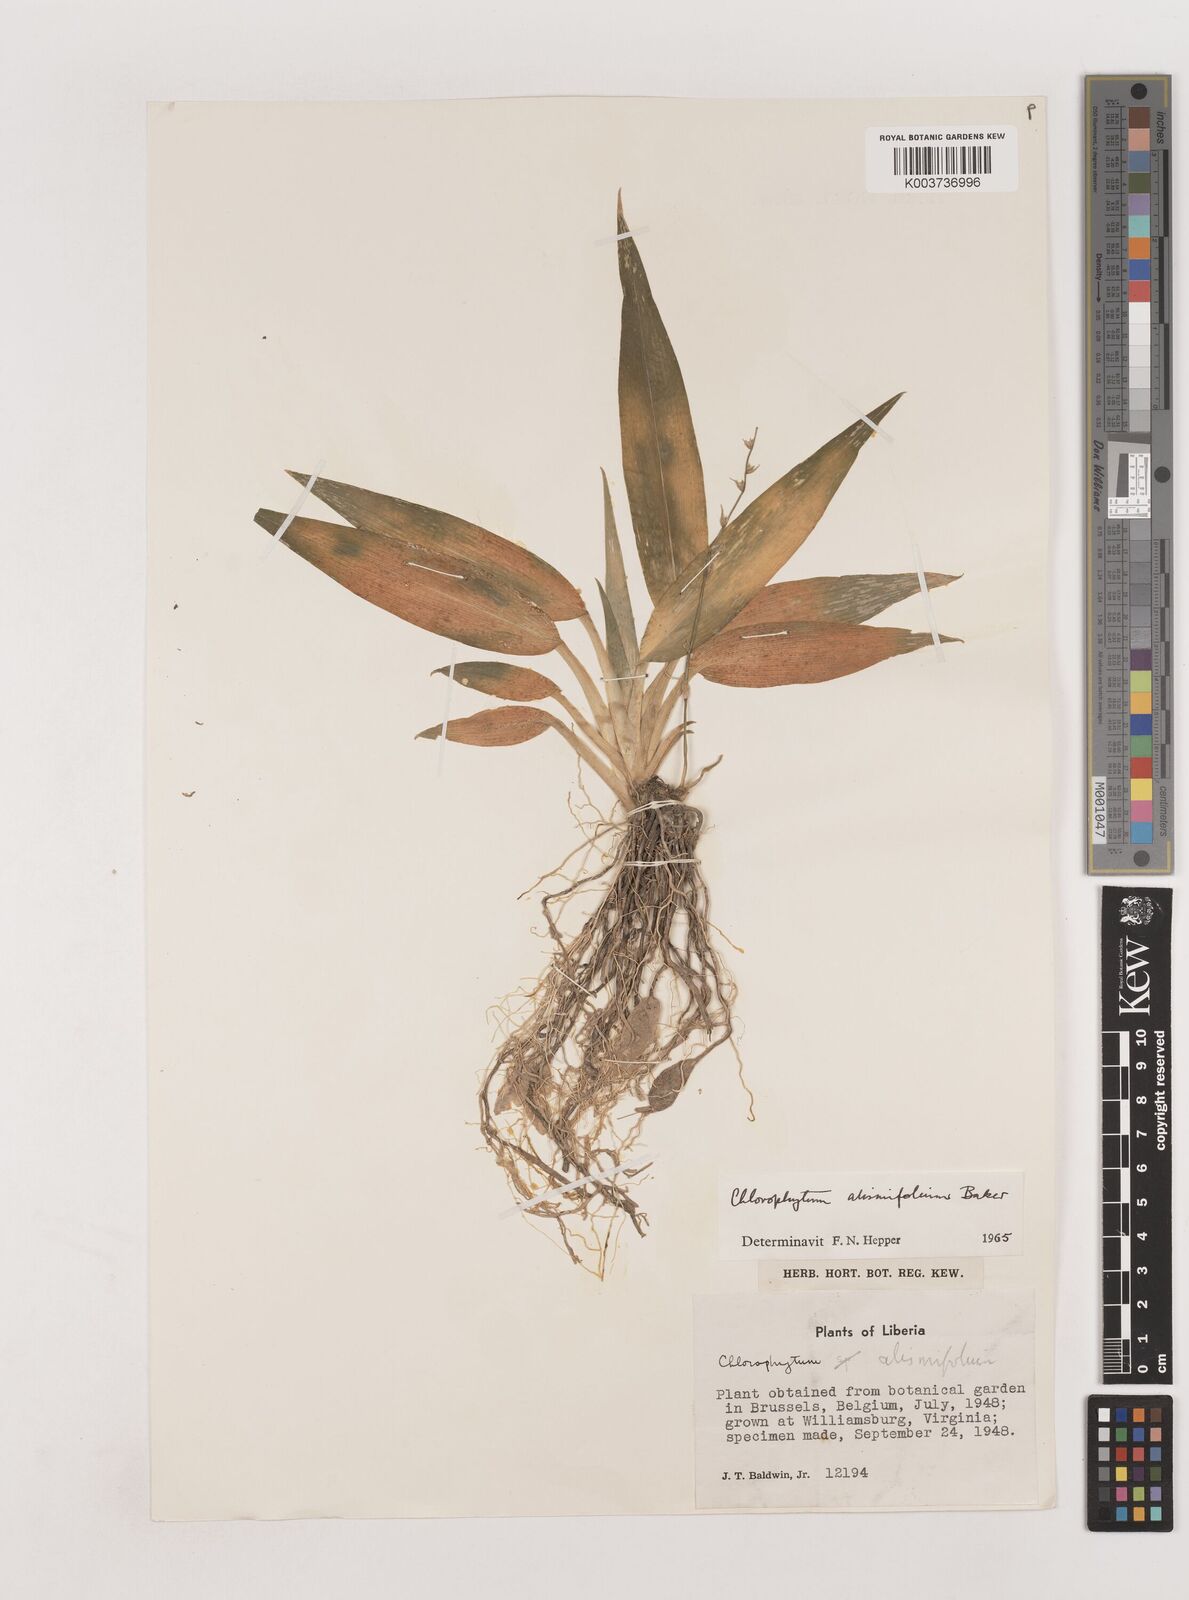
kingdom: Plantae
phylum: Tracheophyta
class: Liliopsida
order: Asparagales
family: Asparagaceae
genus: Chlorophytum
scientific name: Chlorophytum alismifolium
